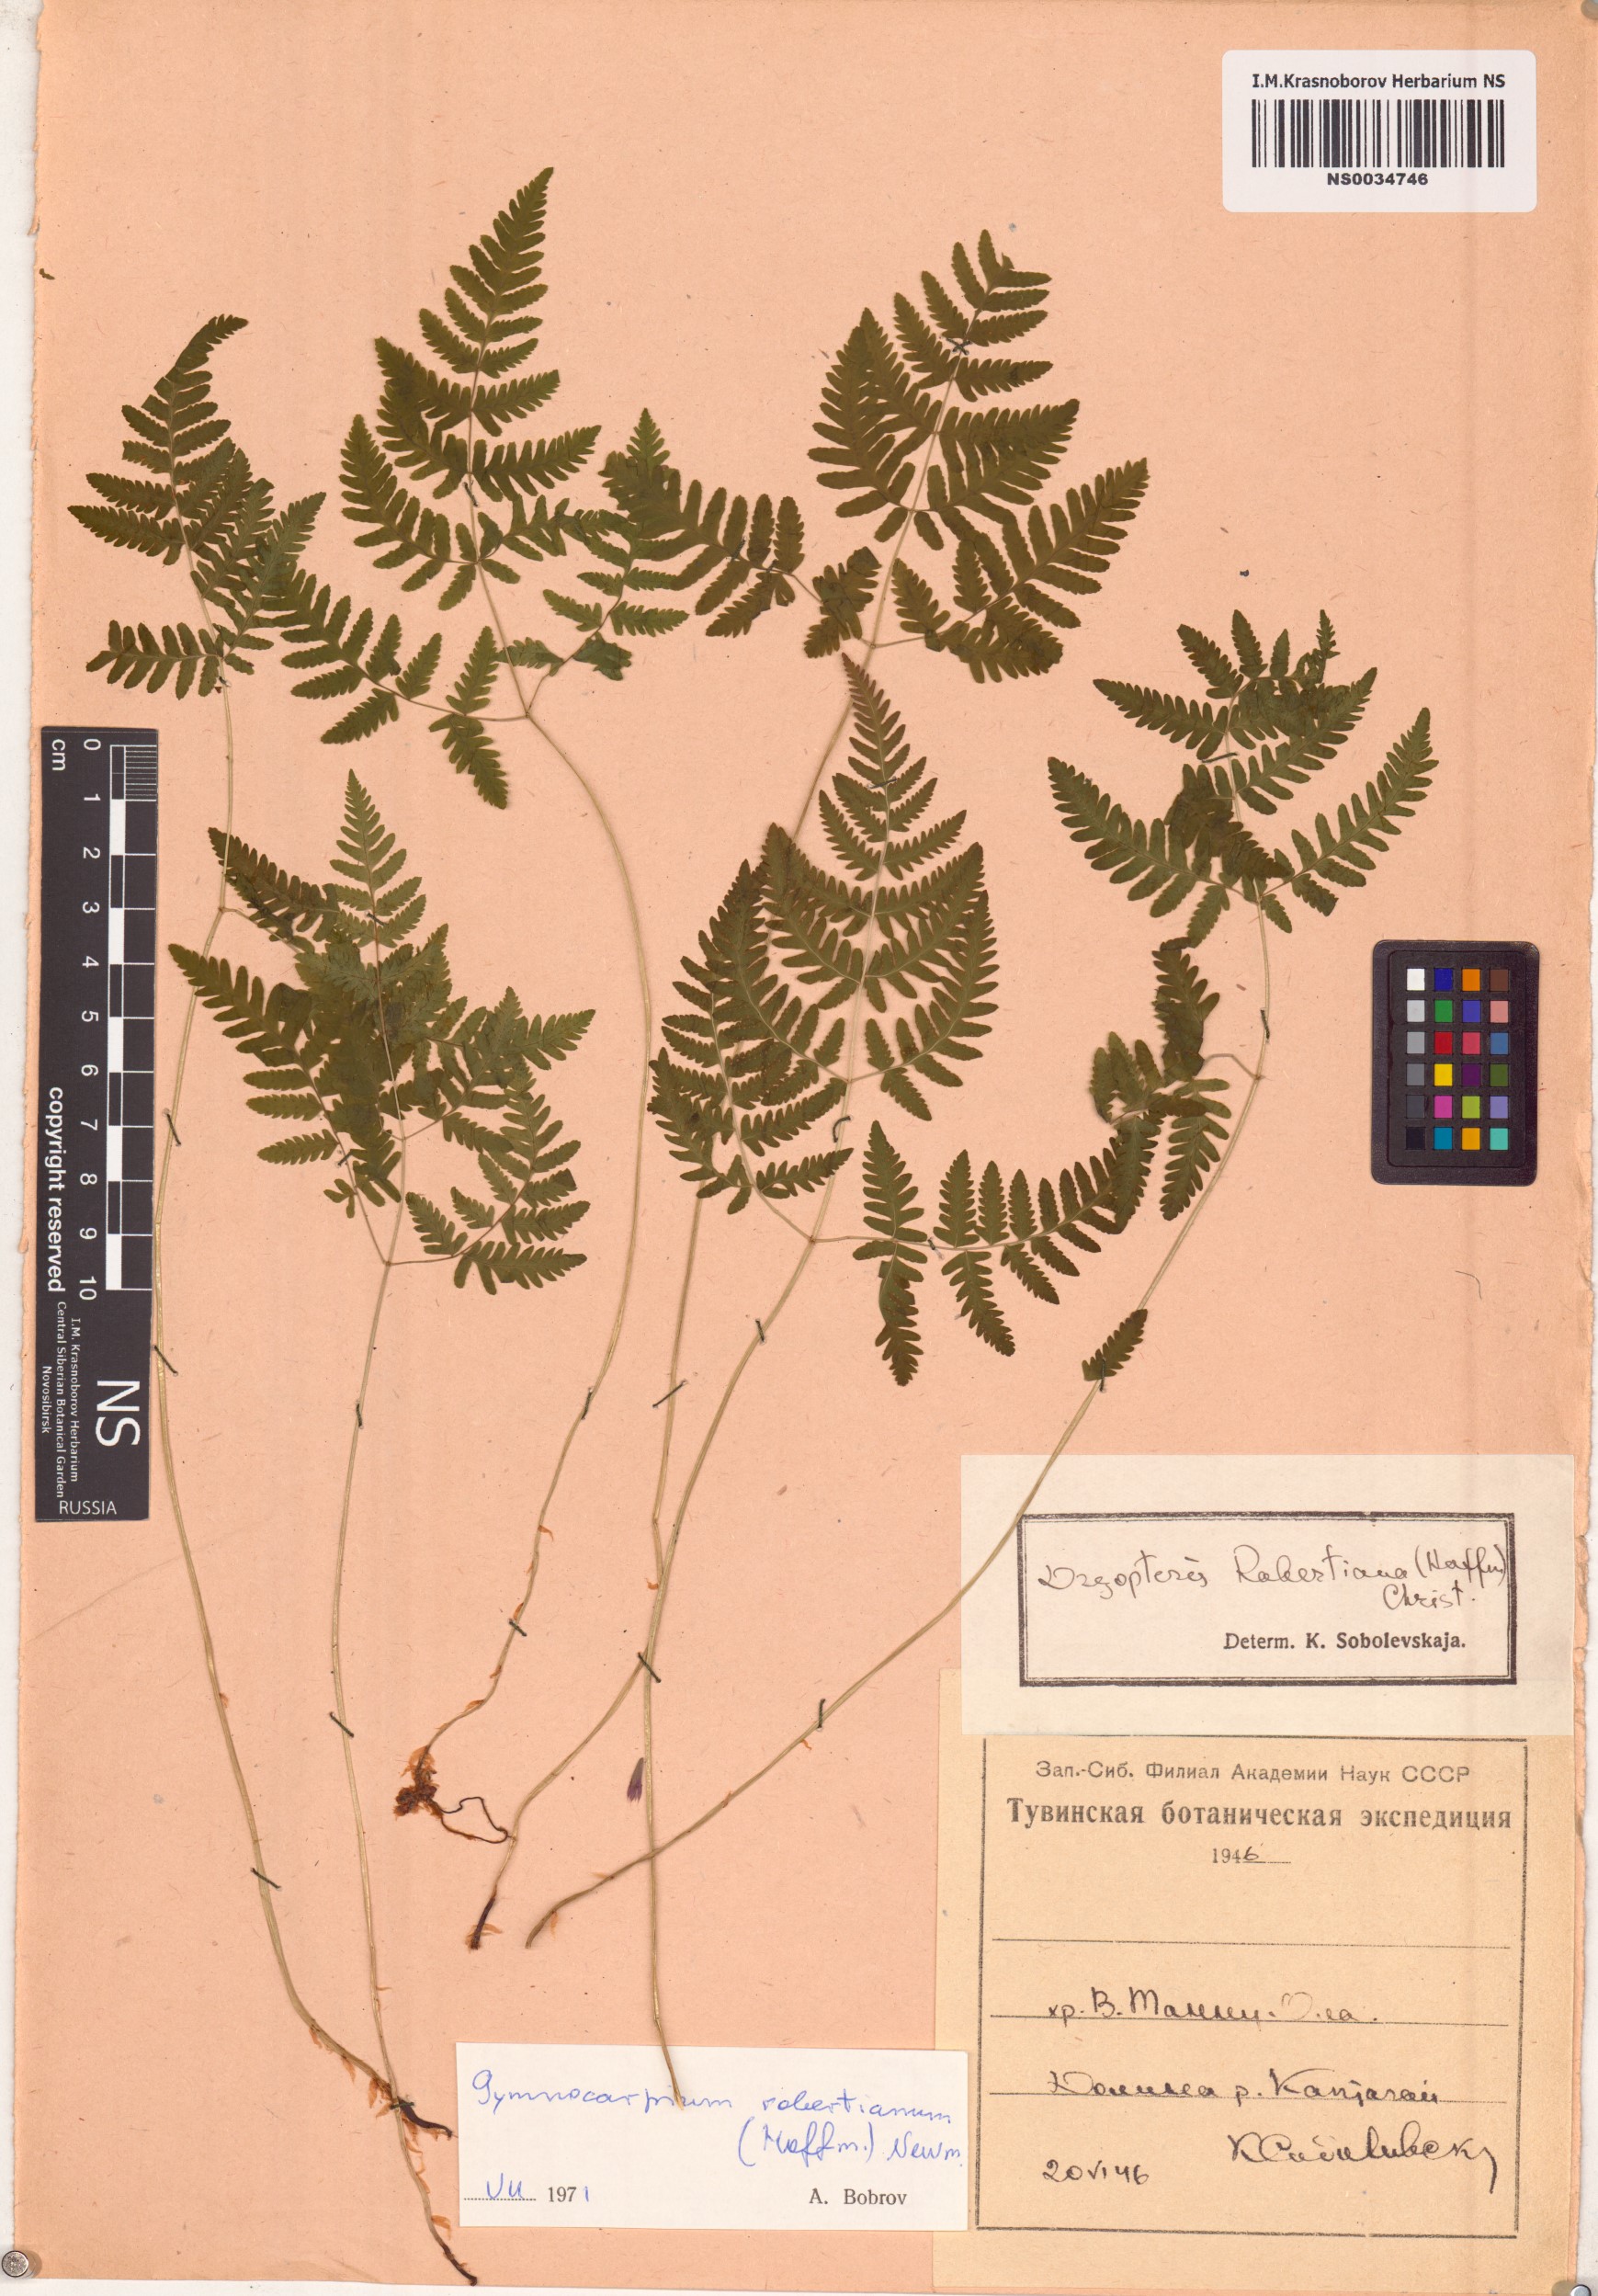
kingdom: Plantae
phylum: Tracheophyta
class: Polypodiopsida
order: Polypodiales
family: Cystopteridaceae
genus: Gymnocarpium
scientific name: Gymnocarpium robertianum
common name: Limestone fern
